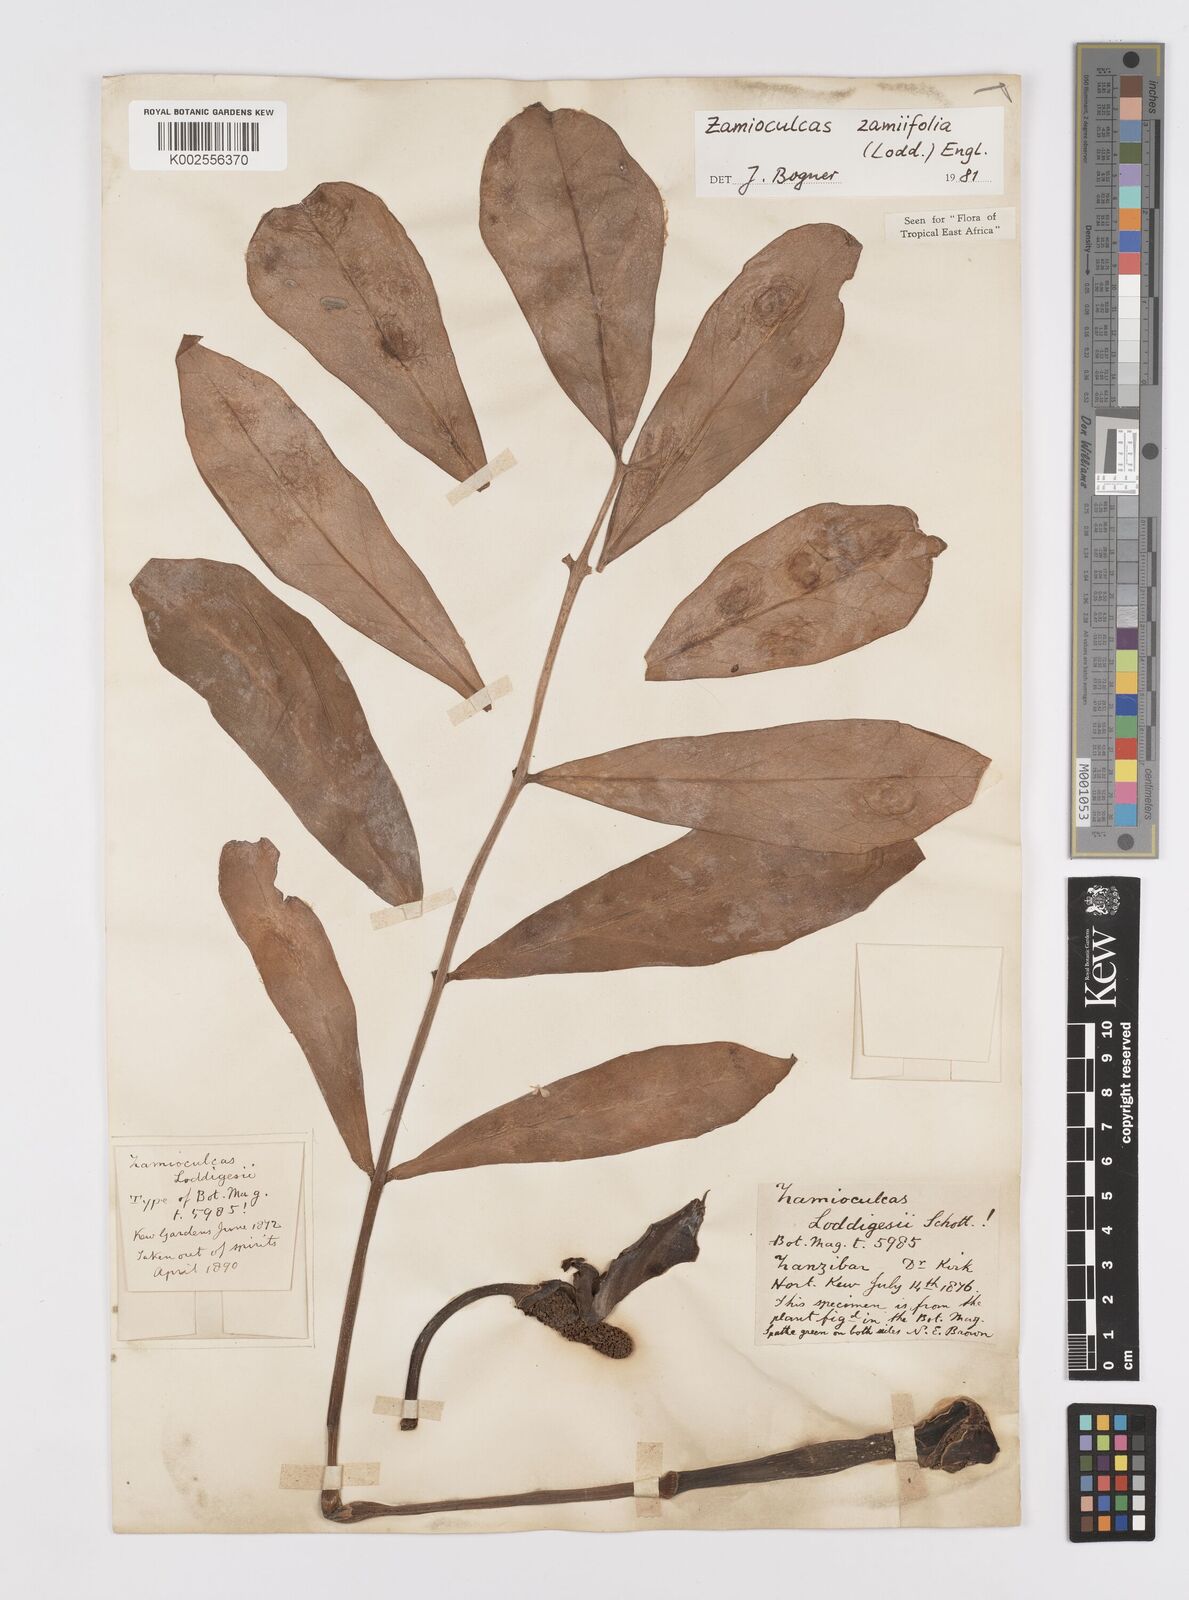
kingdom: Plantae
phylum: Tracheophyta
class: Liliopsida
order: Alismatales
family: Araceae
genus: Zamioculcas
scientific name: Zamioculcas zamiifolia
